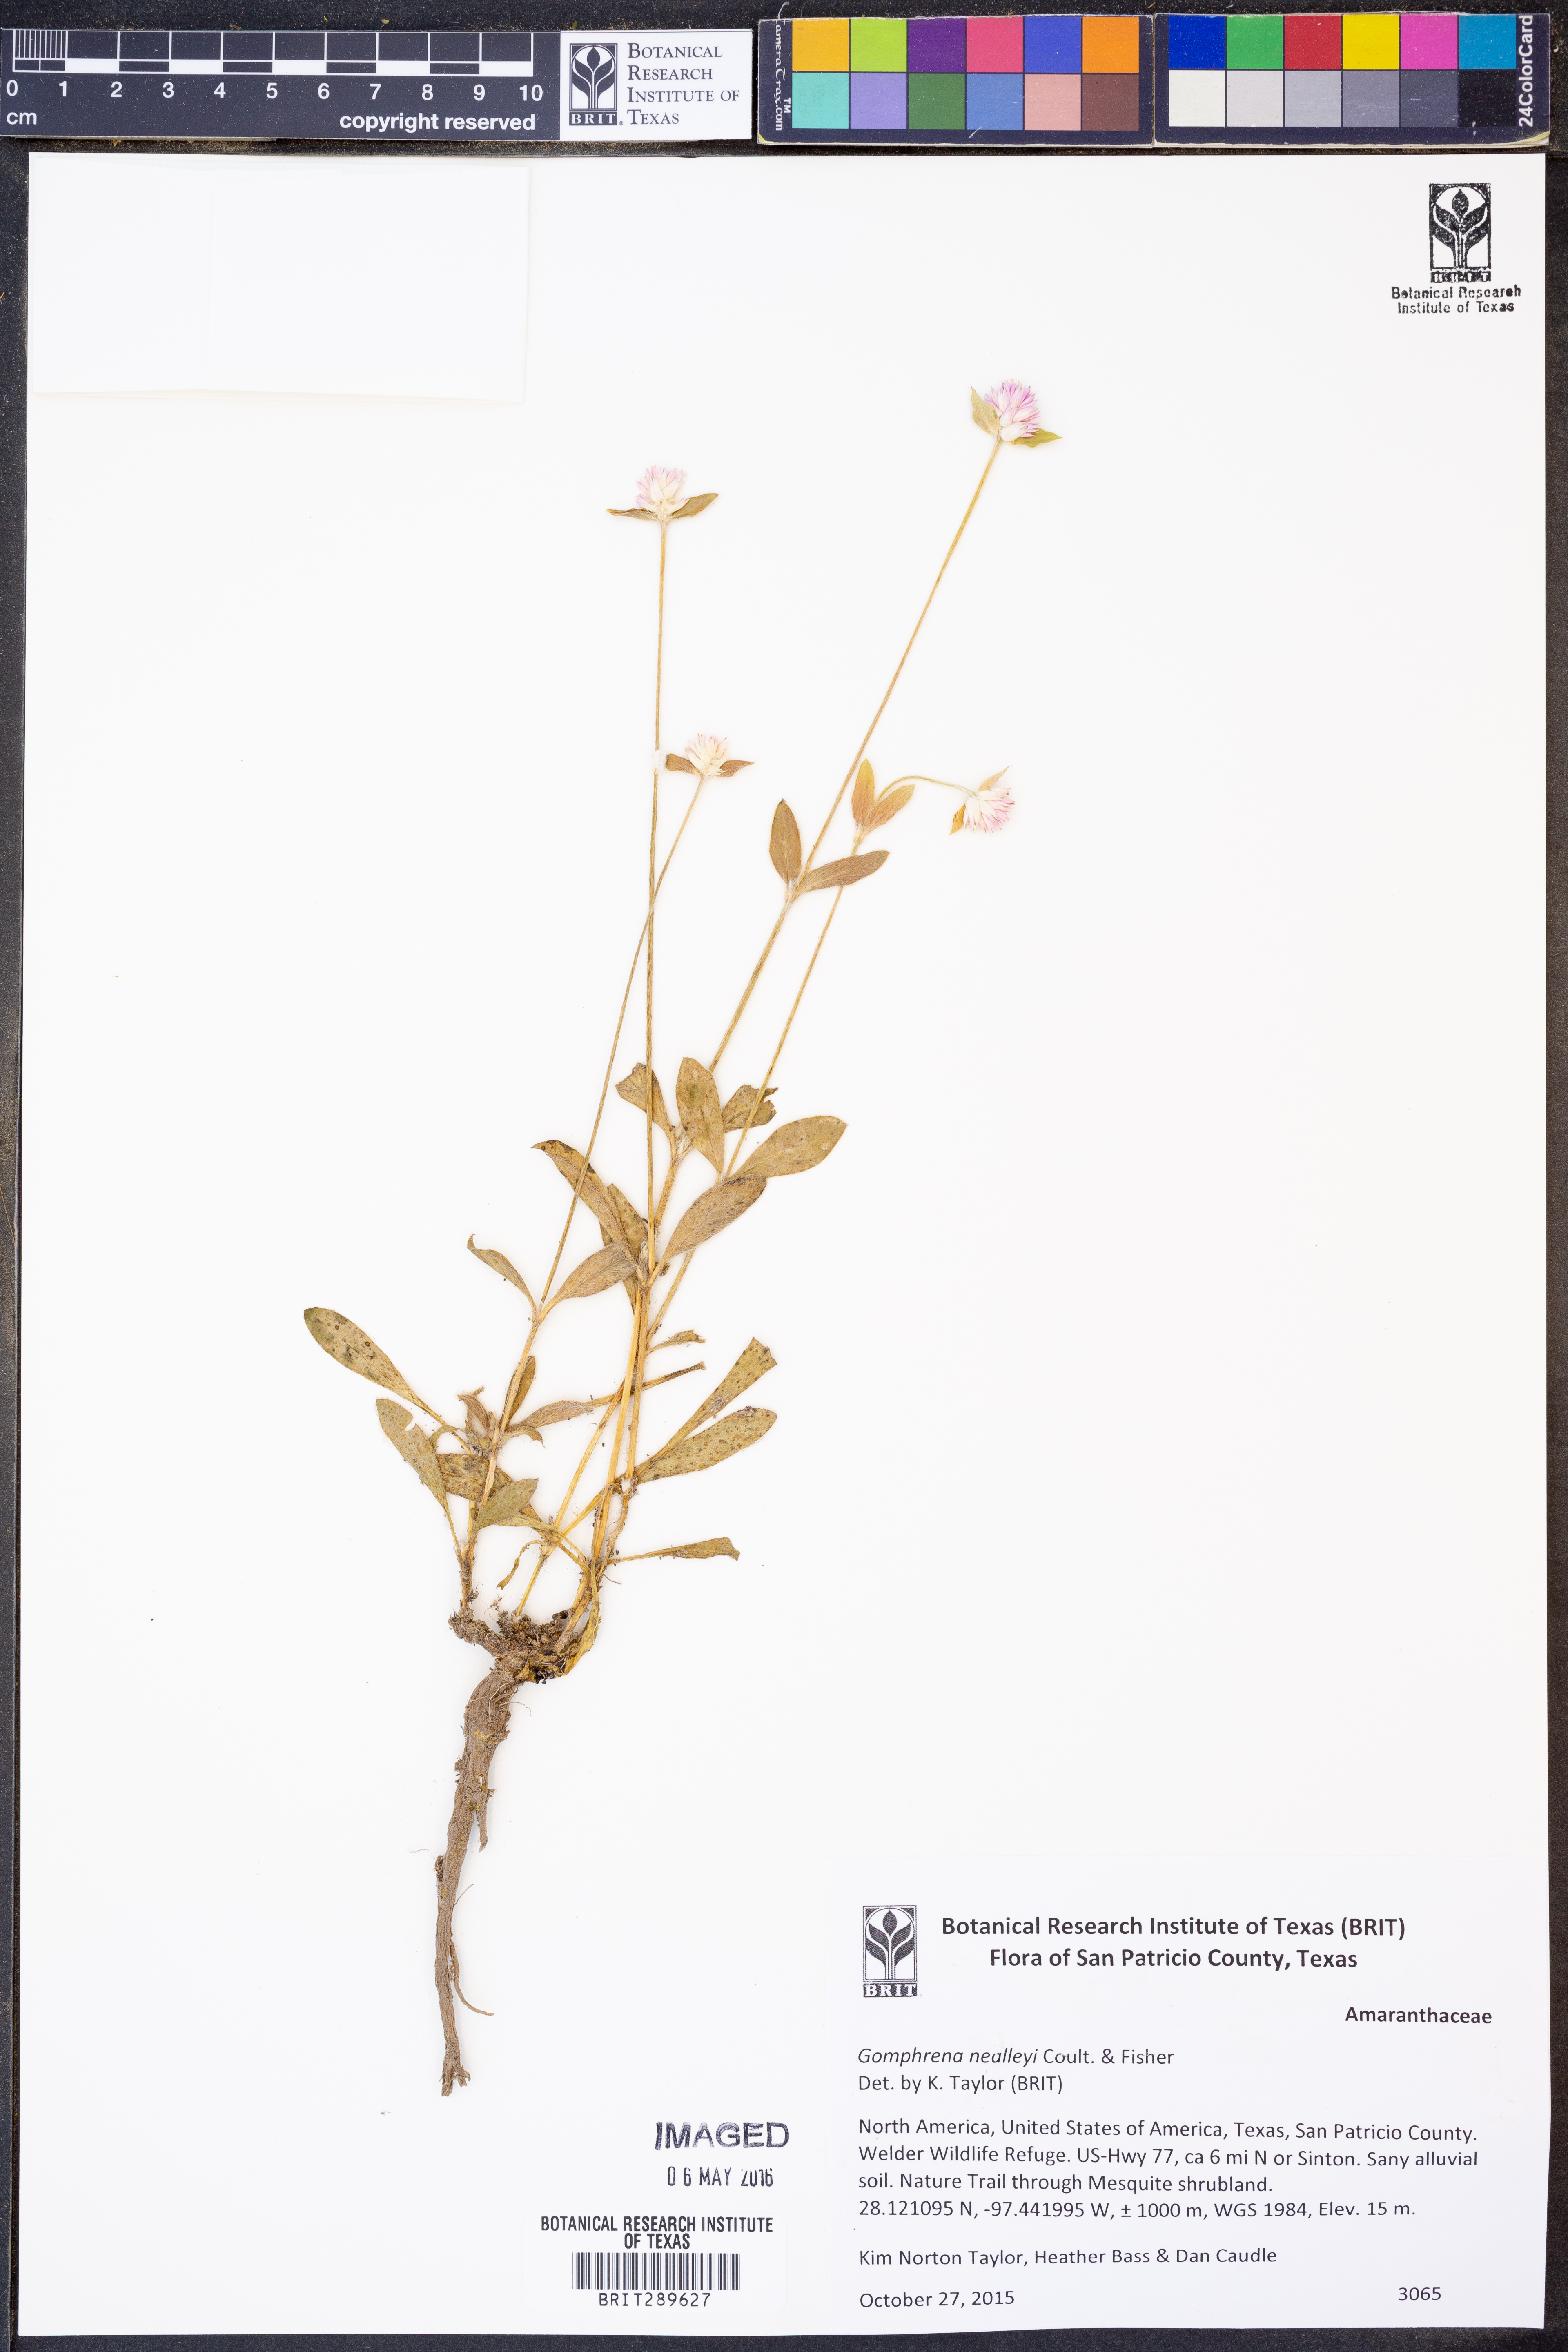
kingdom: Plantae
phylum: Tracheophyta
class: Magnoliopsida
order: Caryophyllales
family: Amaranthaceae
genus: Gomphrena
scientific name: Gomphrena nealleyi
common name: Nealley's globe-amaranth
